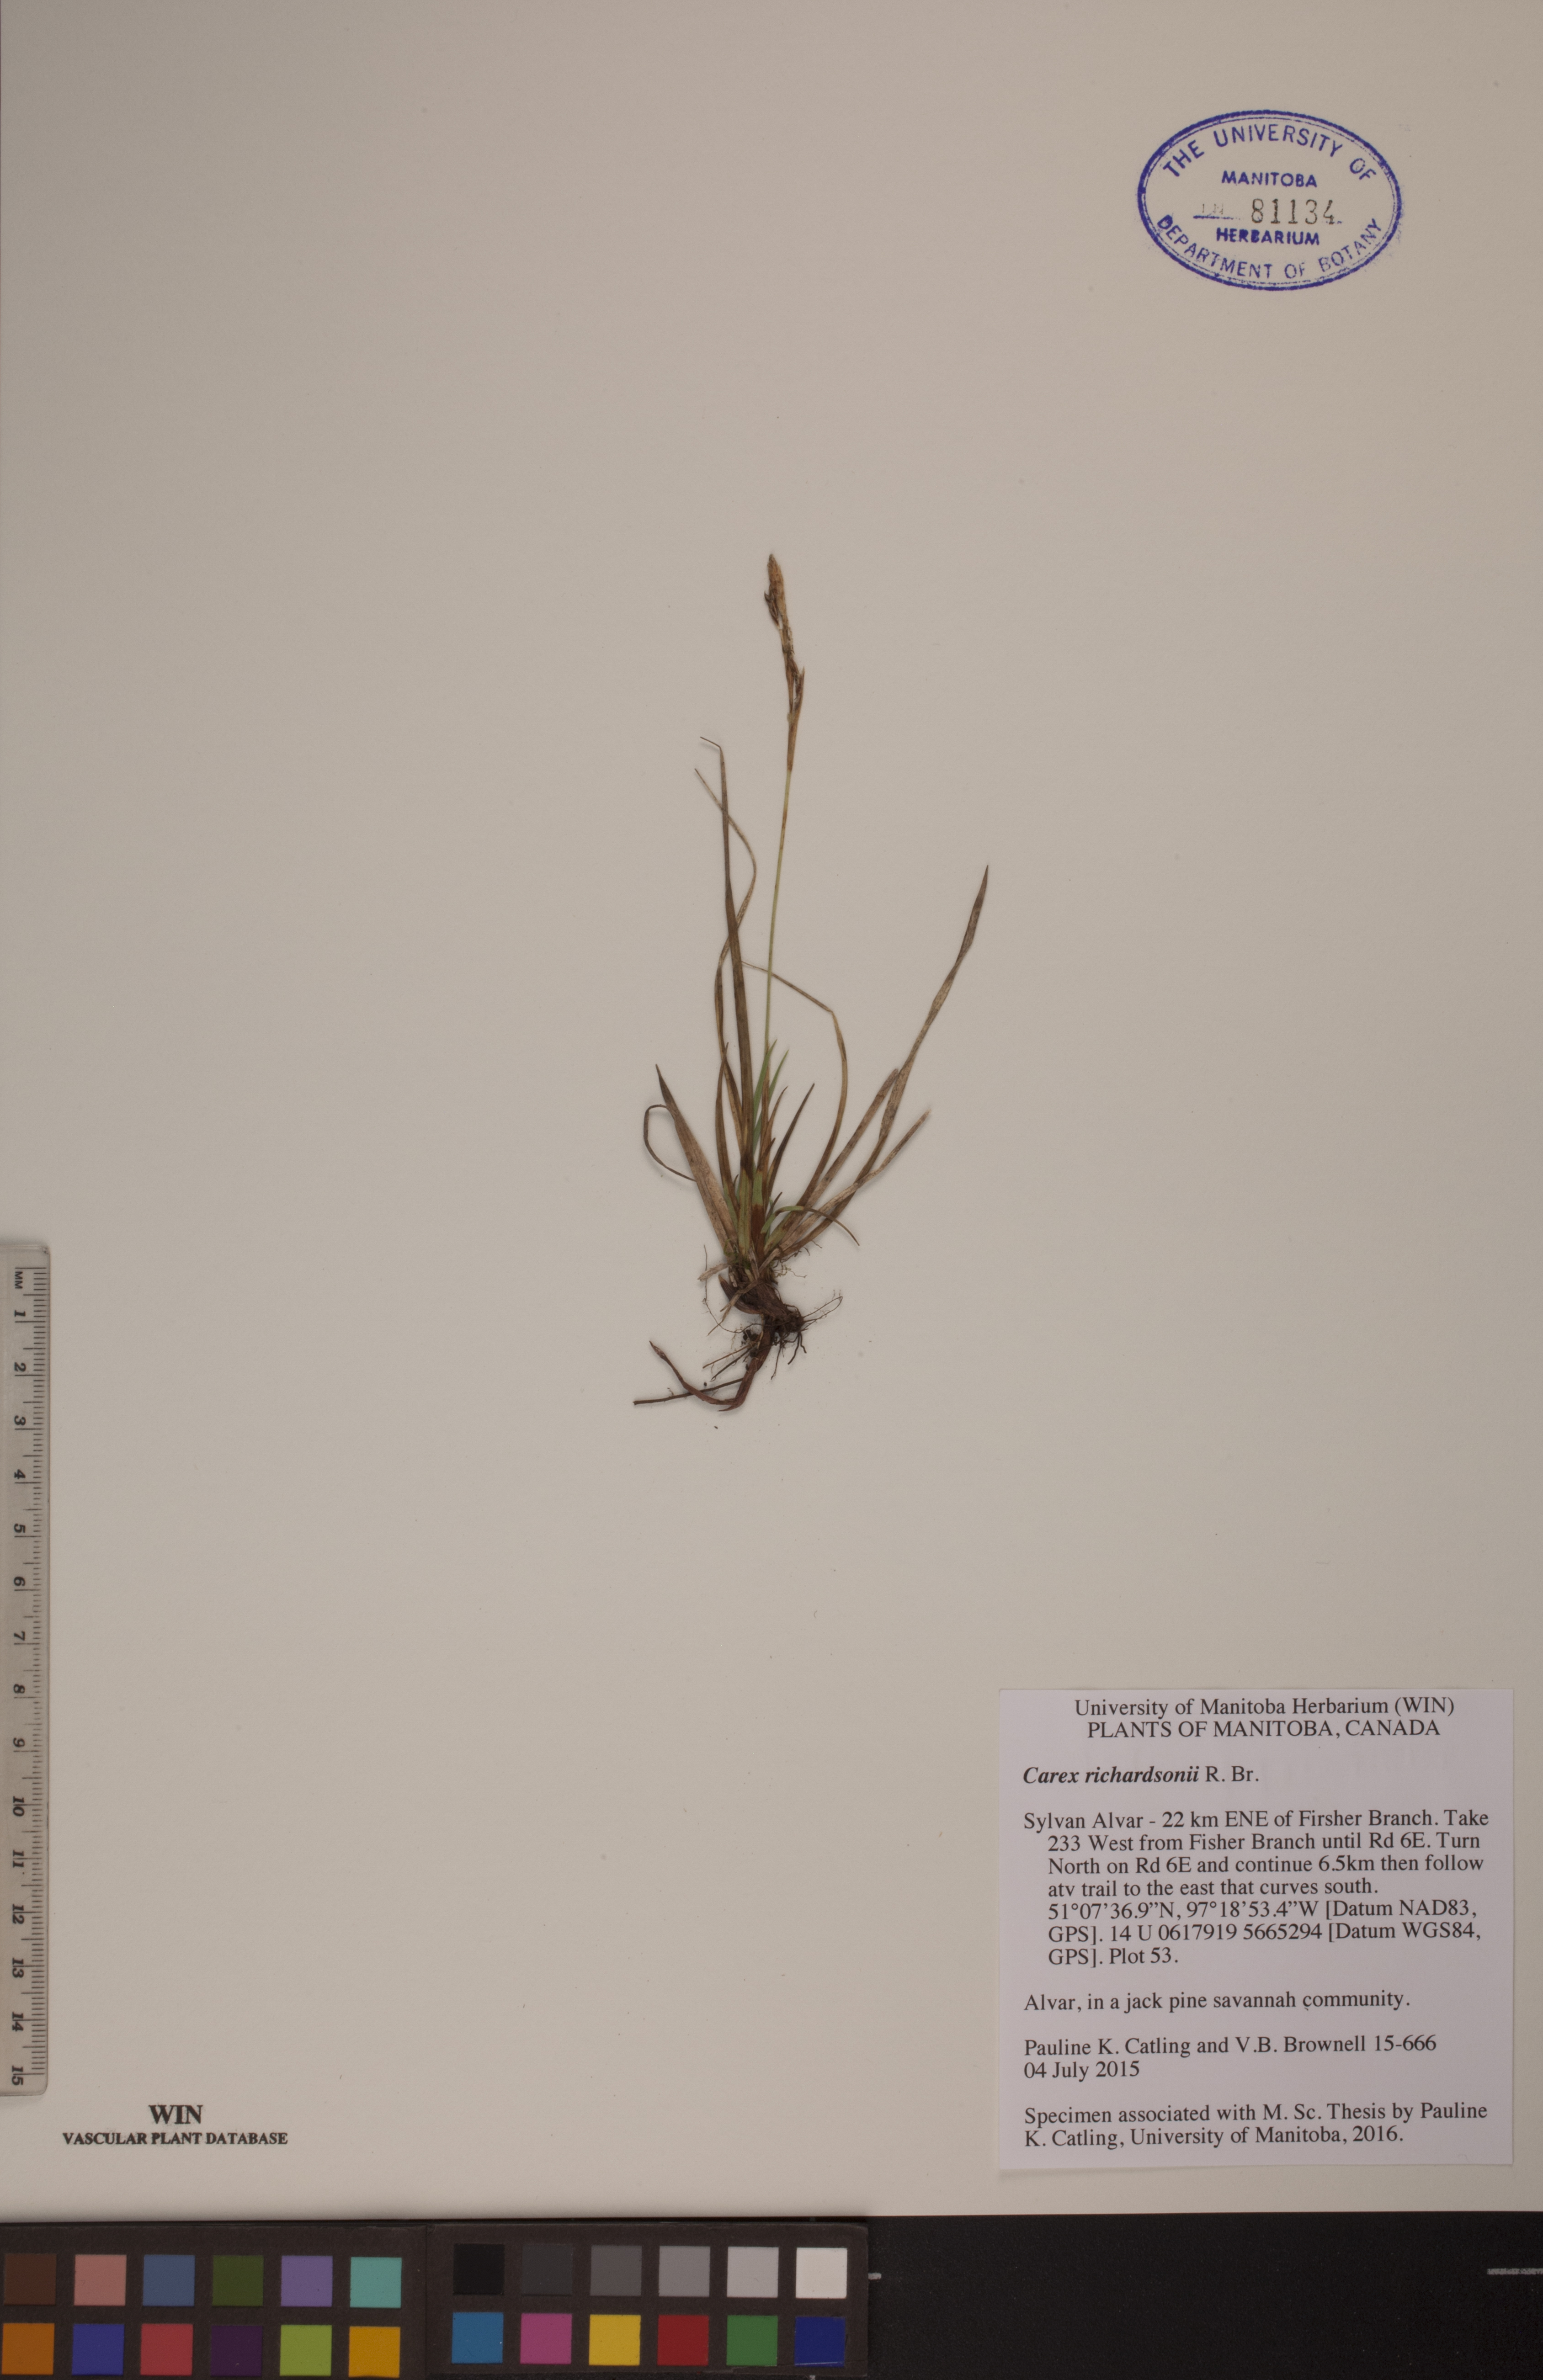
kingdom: Plantae
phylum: Tracheophyta
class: Liliopsida
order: Poales
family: Cyperaceae
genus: Carex
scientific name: Carex richardsonii
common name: Prairie hummock sedge
